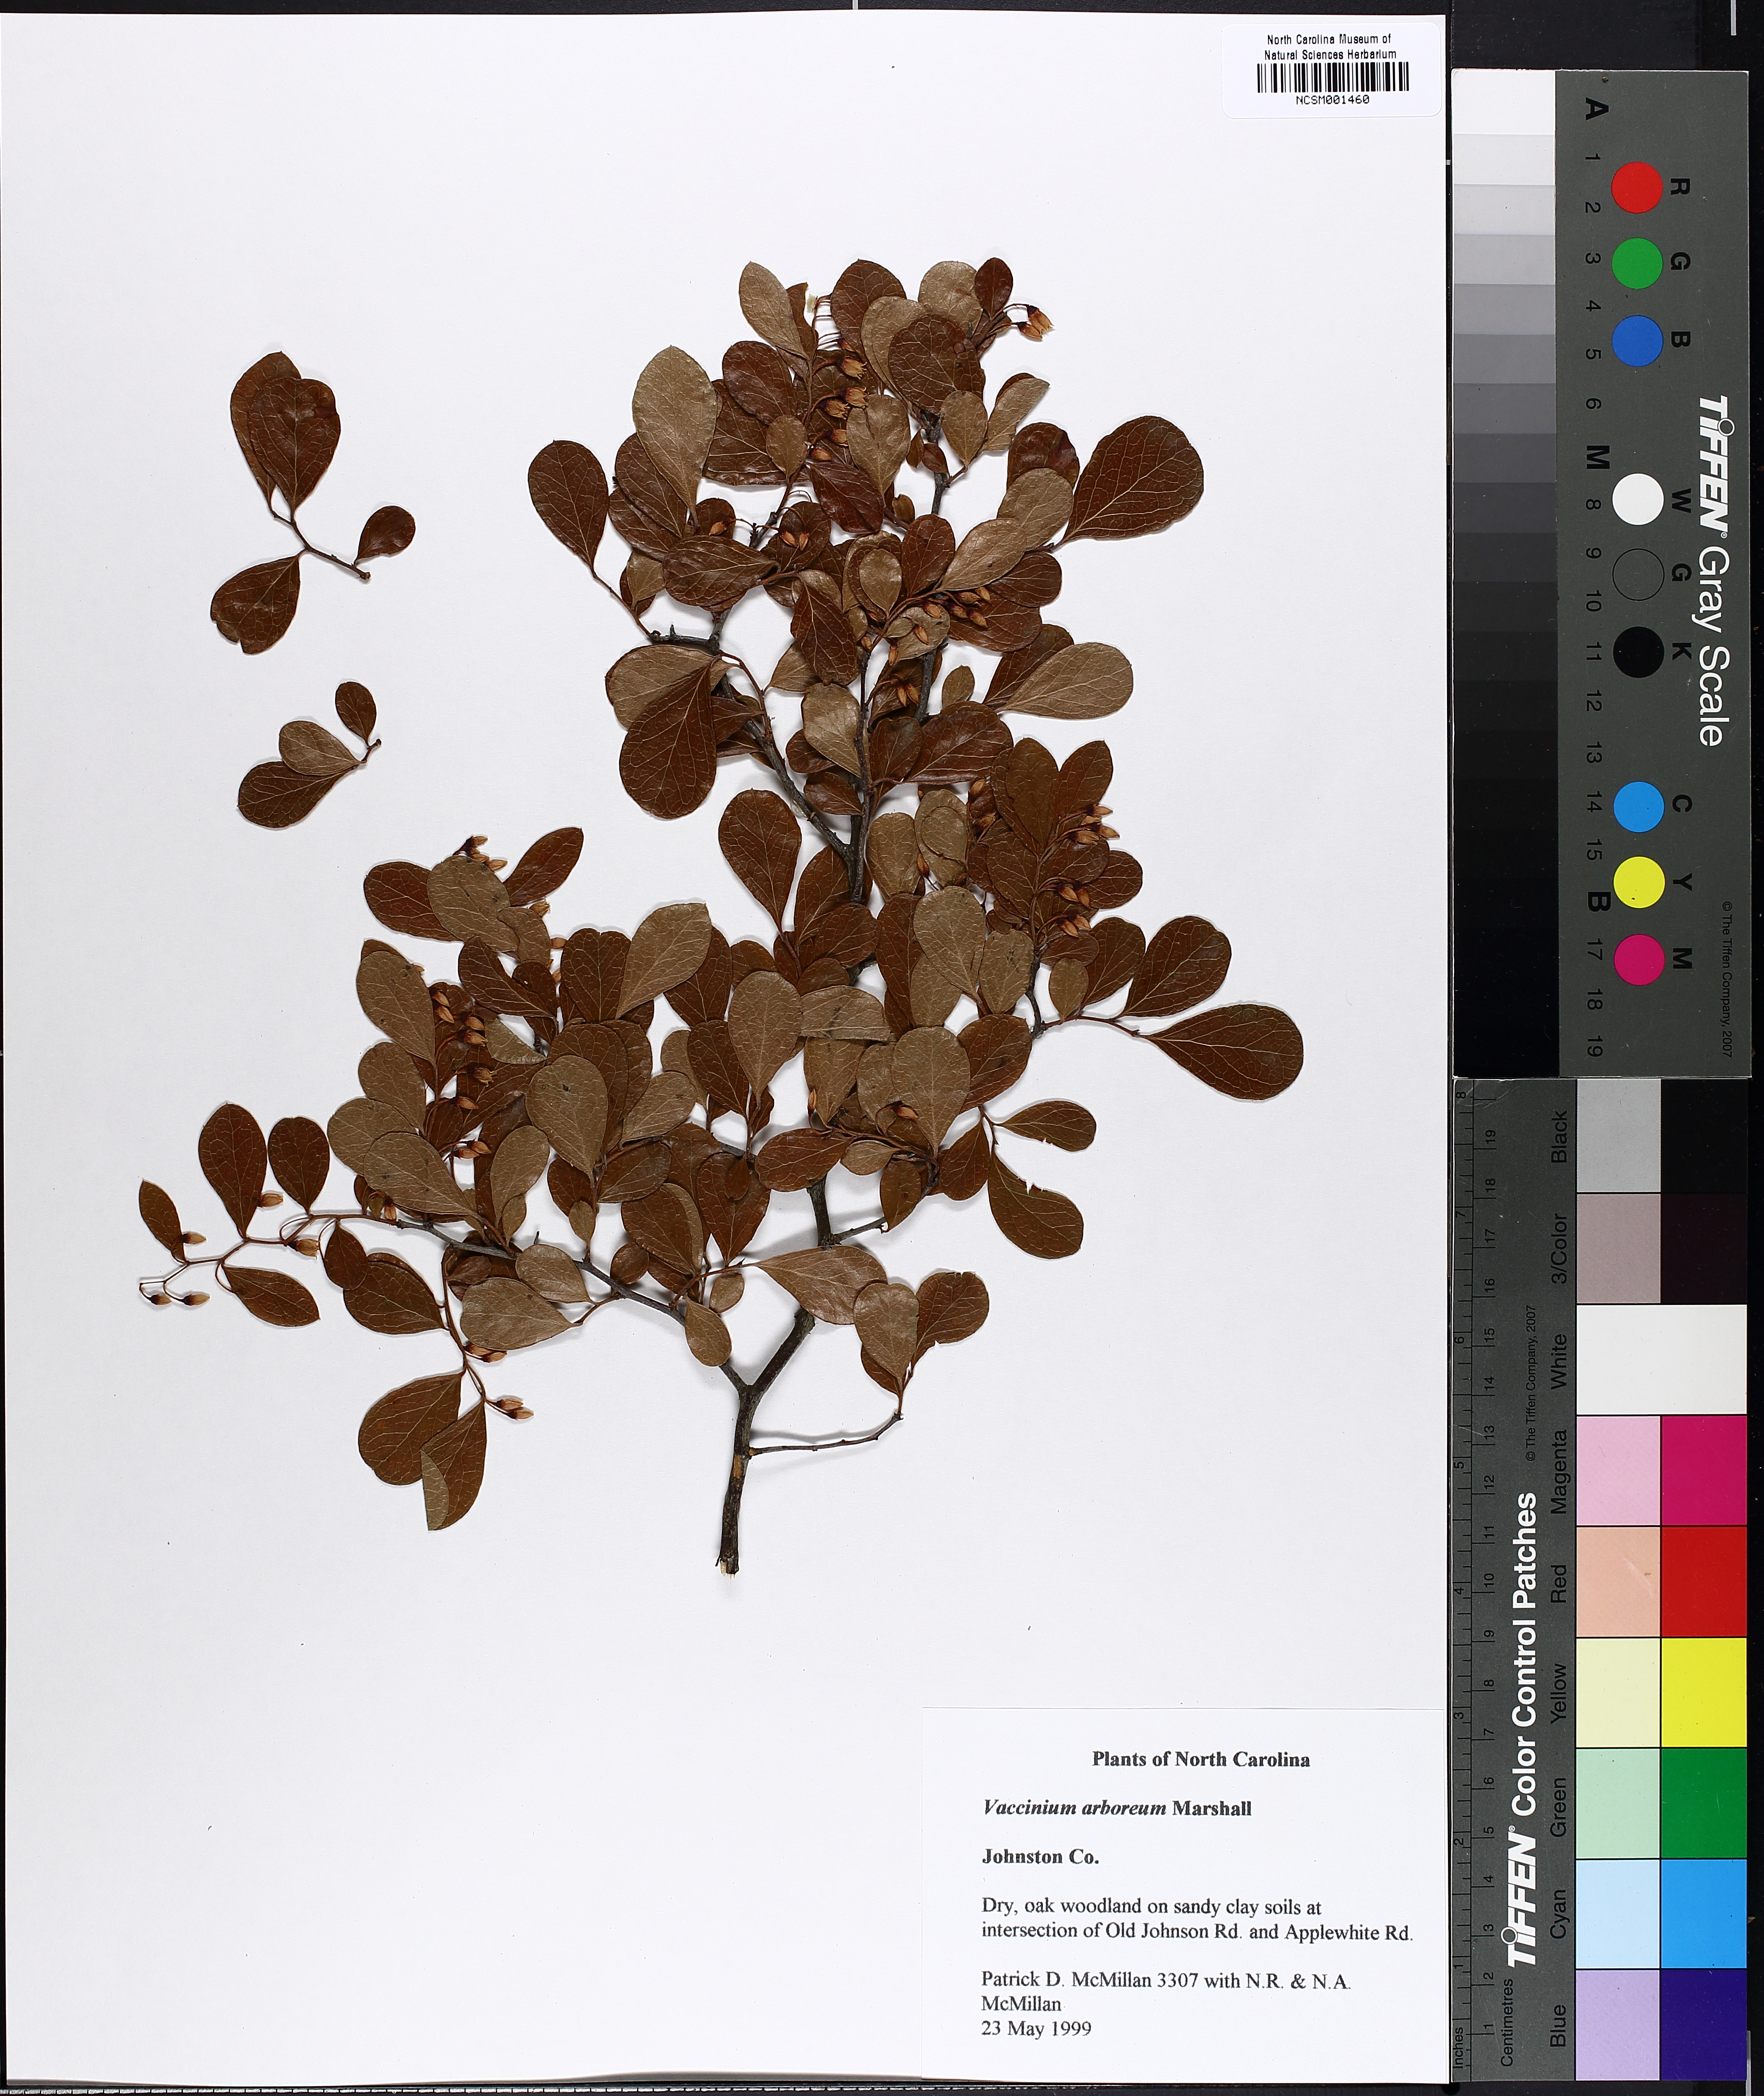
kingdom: Plantae
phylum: Tracheophyta
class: Magnoliopsida
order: Ericales
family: Ericaceae
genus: Vaccinium
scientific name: Vaccinium arboreum
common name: Farkleberry
